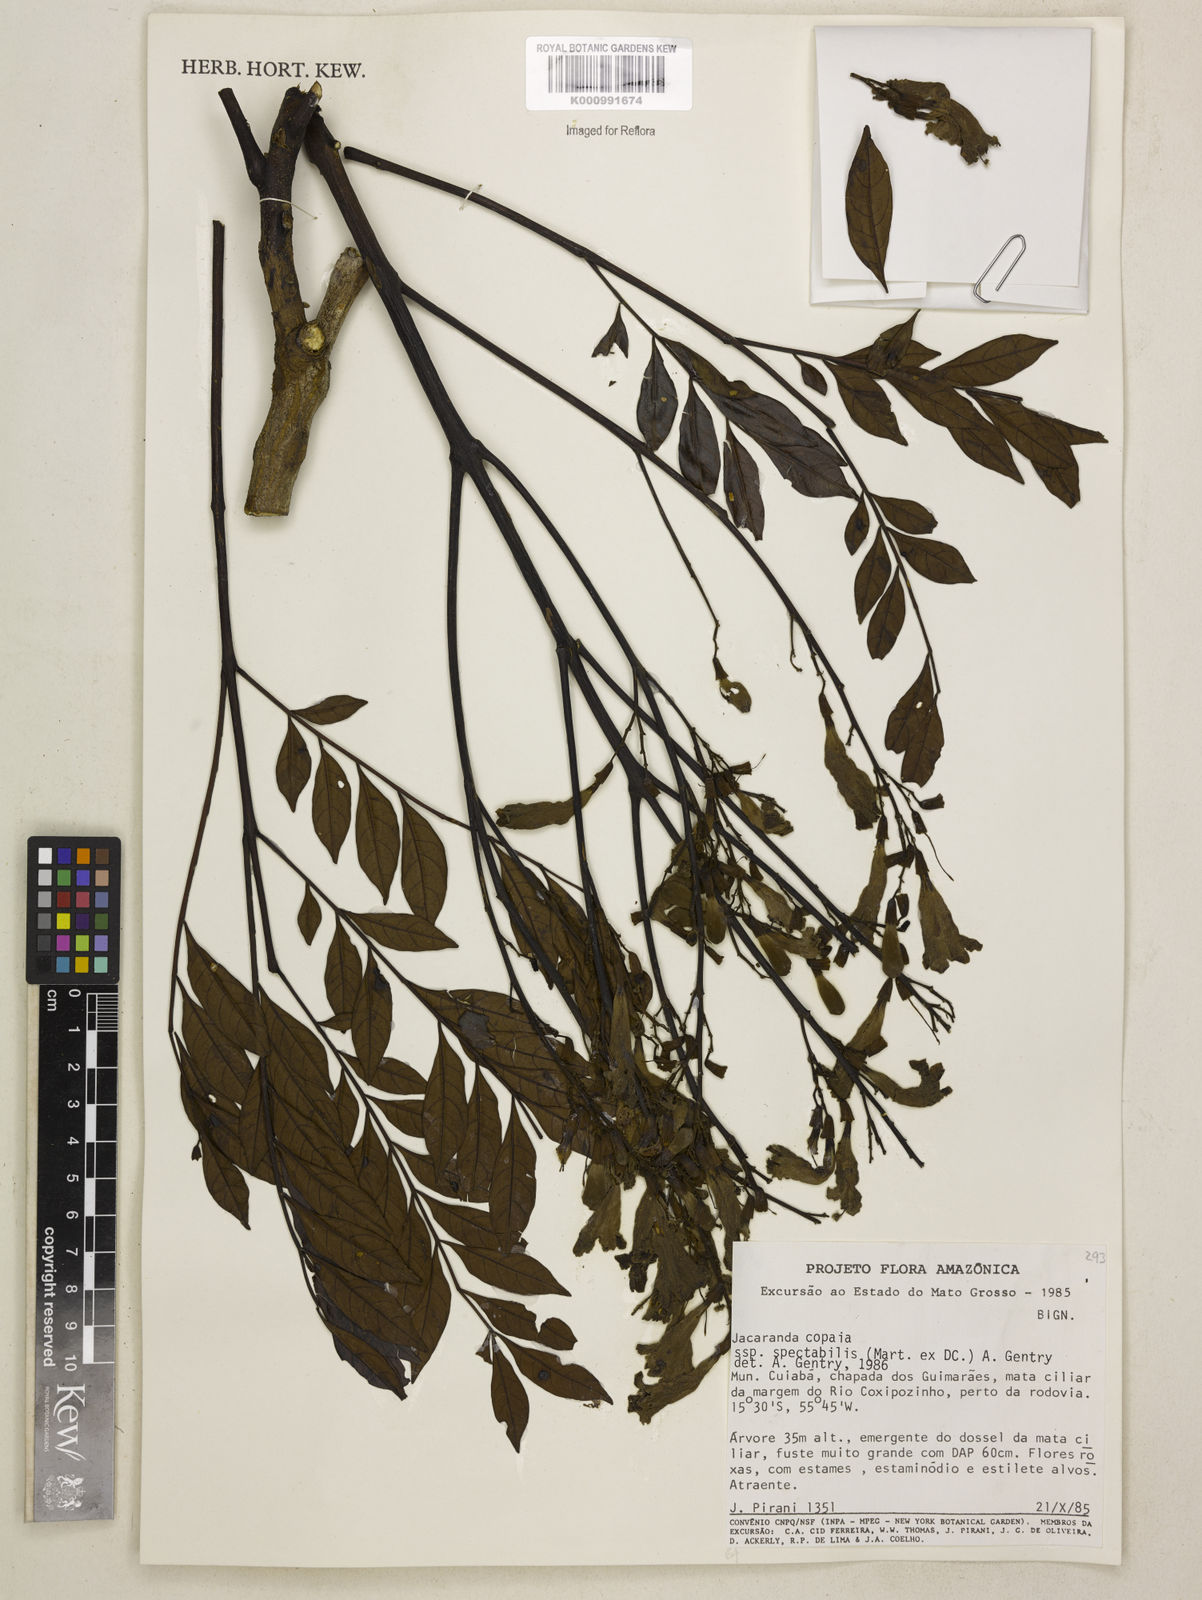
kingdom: Plantae
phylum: Tracheophyta
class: Magnoliopsida
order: Lamiales
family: Bignoniaceae
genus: Jacaranda
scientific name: Jacaranda copaia
